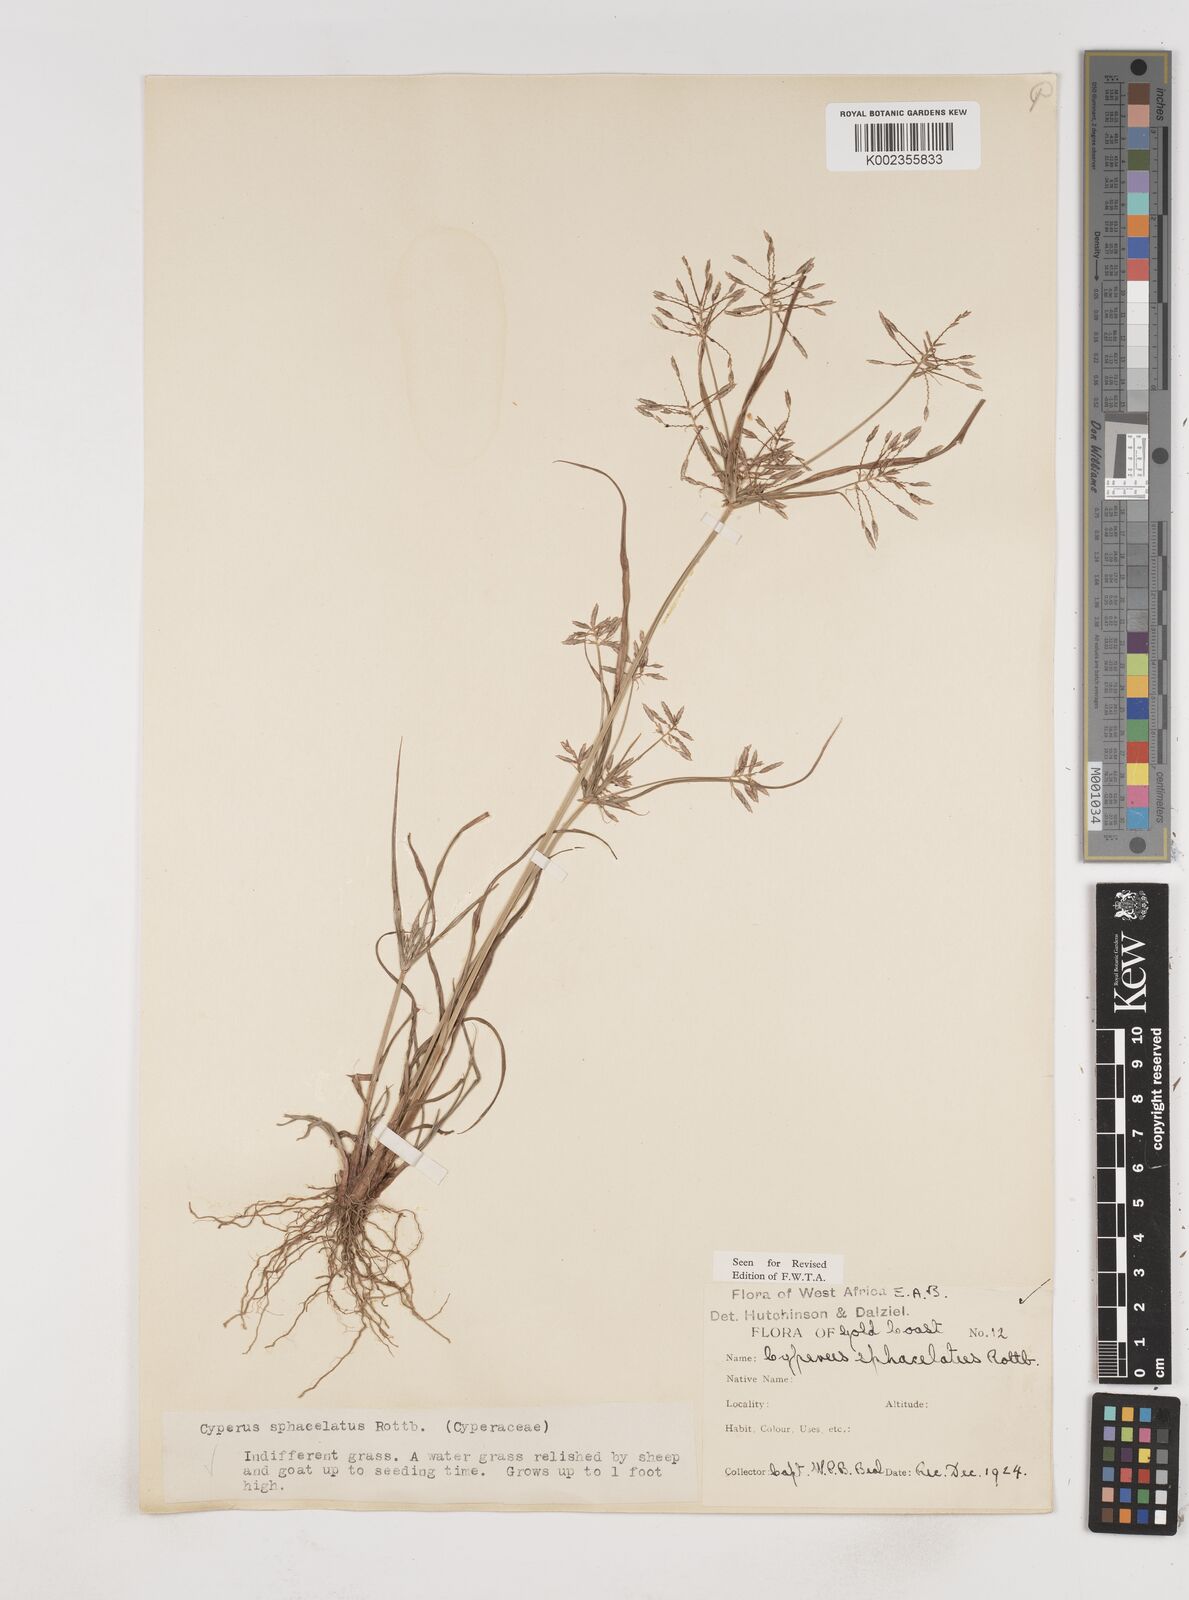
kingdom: Plantae
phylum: Tracheophyta
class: Liliopsida
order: Poales
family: Cyperaceae
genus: Cyperus
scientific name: Cyperus sphacelatus
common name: Roadside flatsedge
